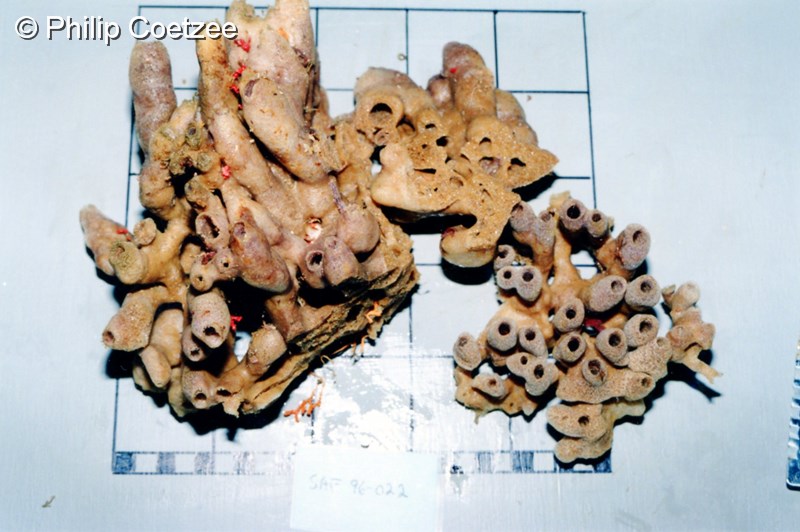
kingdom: Animalia
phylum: Porifera
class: Demospongiae
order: Axinellida
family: Axinellidae
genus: Auletta
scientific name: Auletta
